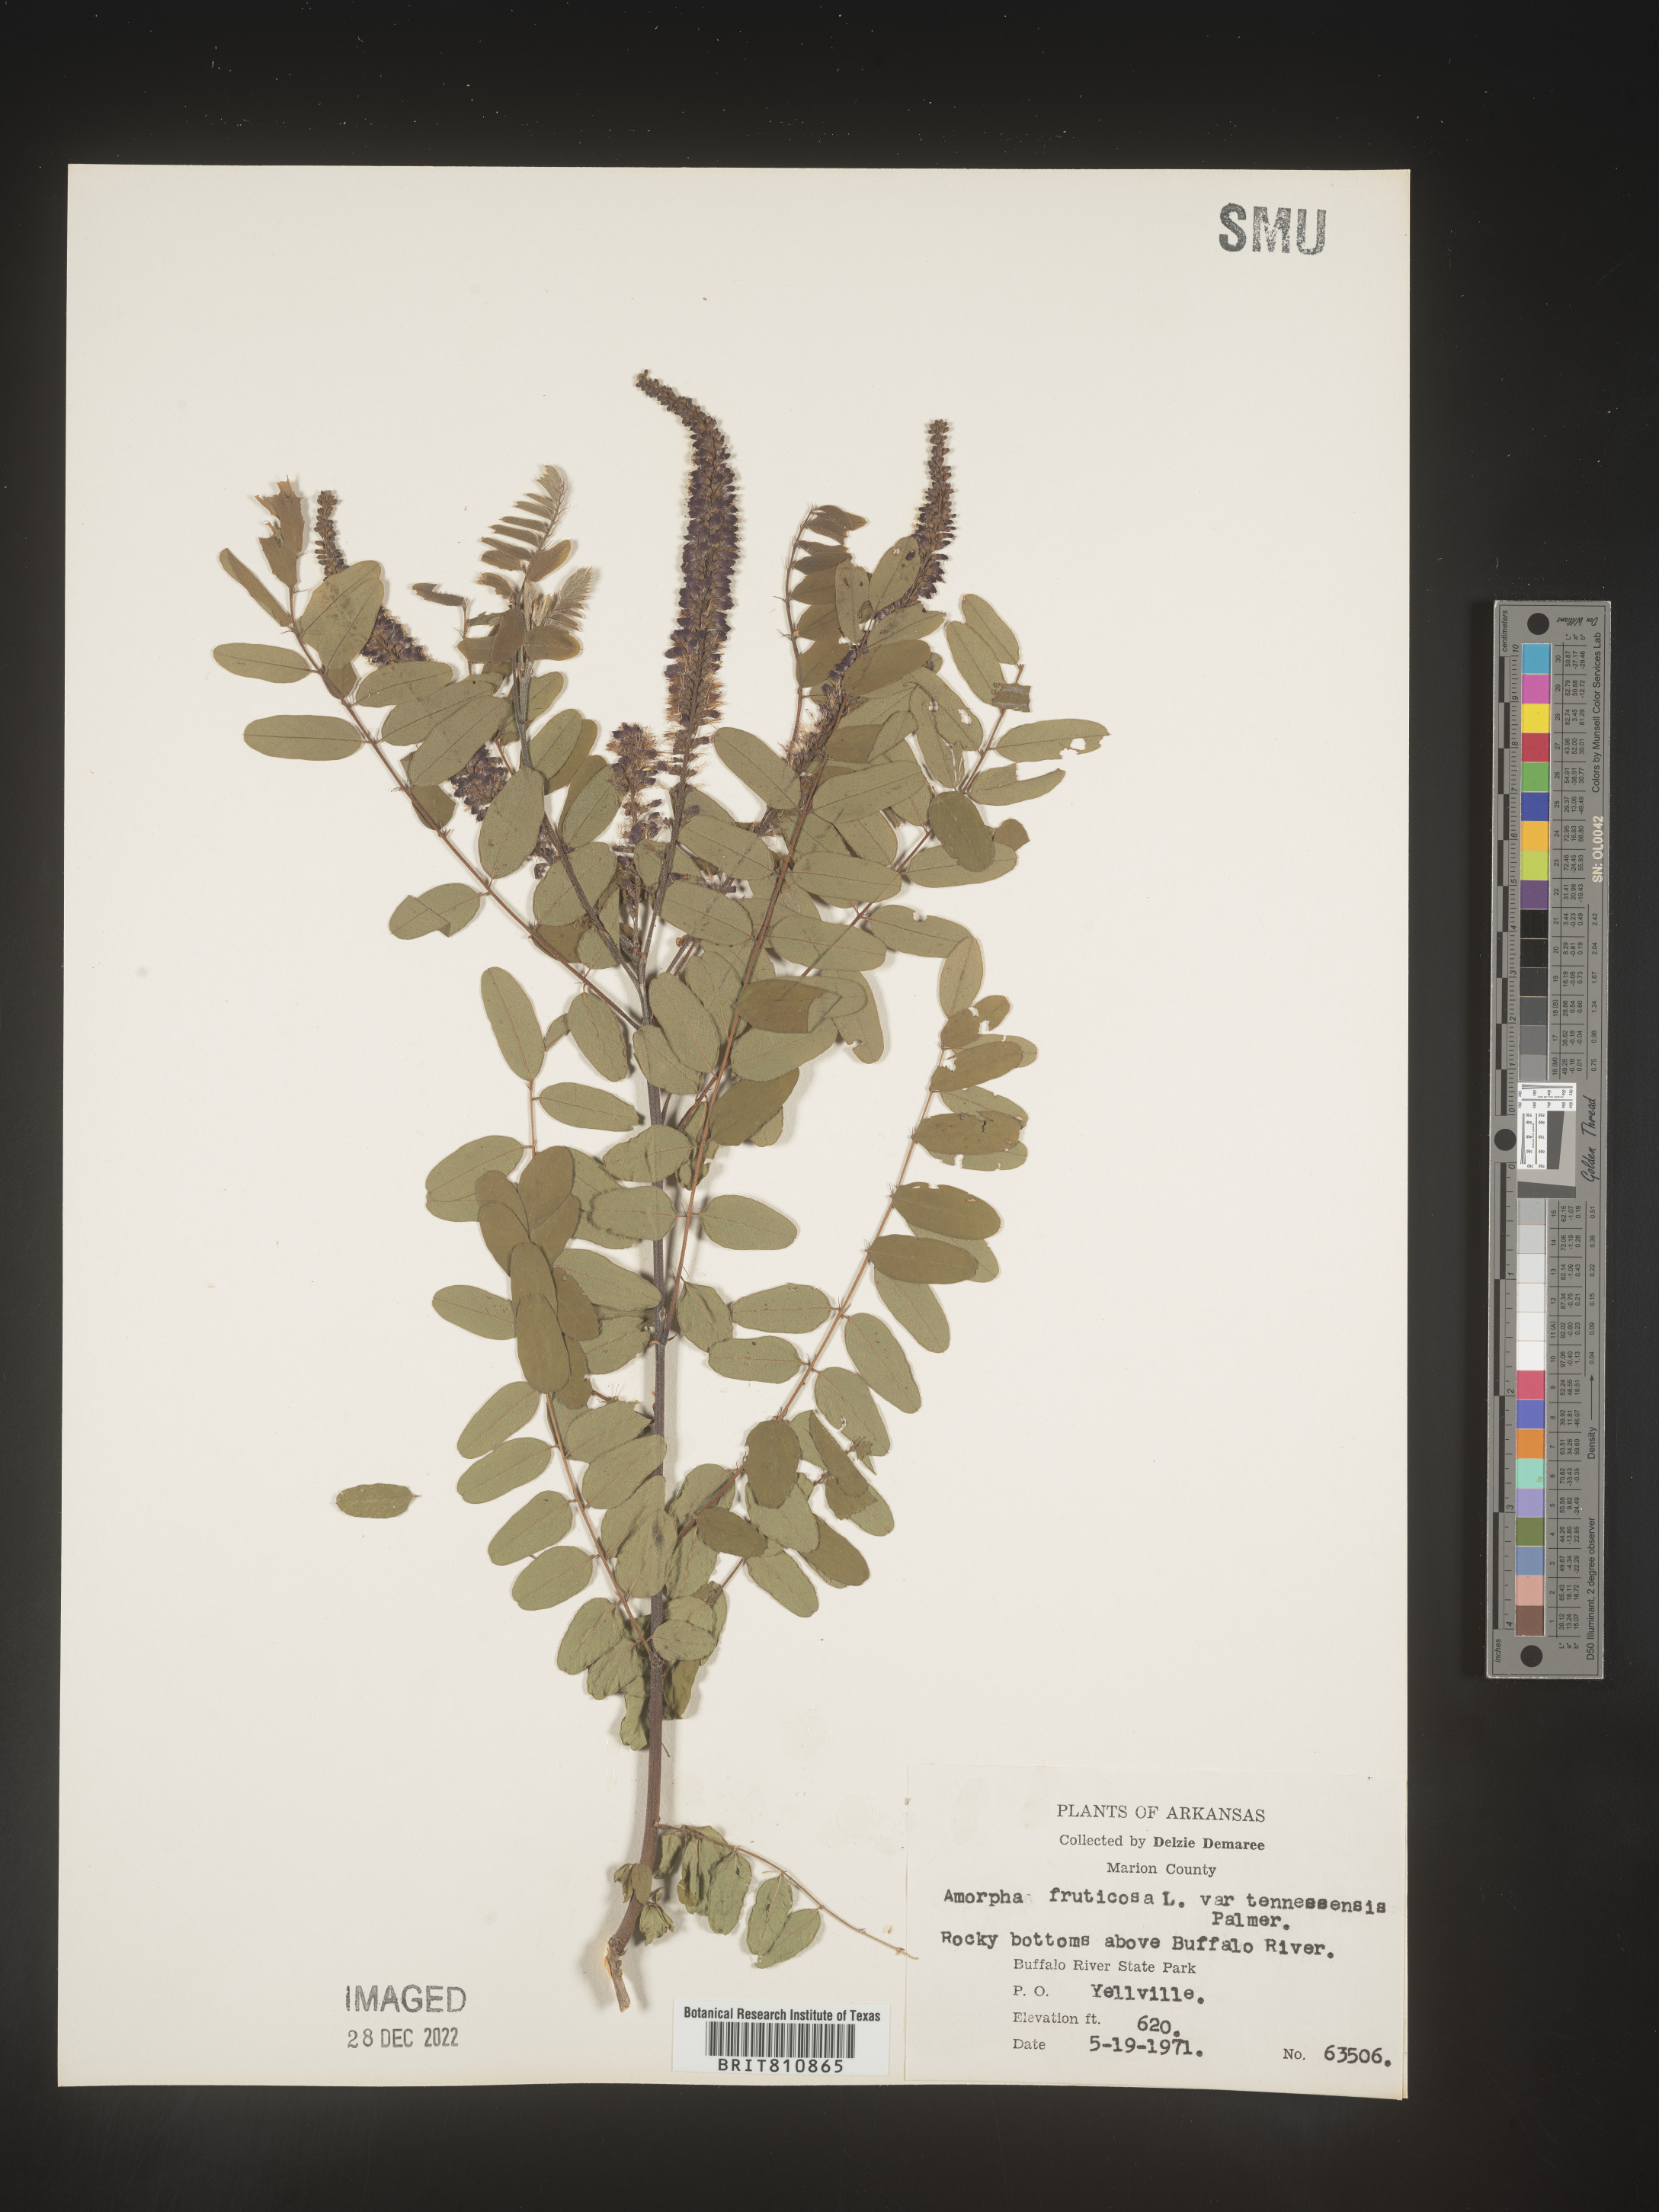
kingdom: Plantae
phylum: Tracheophyta
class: Magnoliopsida
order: Fabales
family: Fabaceae
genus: Amorpha
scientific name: Amorpha fruticosa
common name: False indigo
